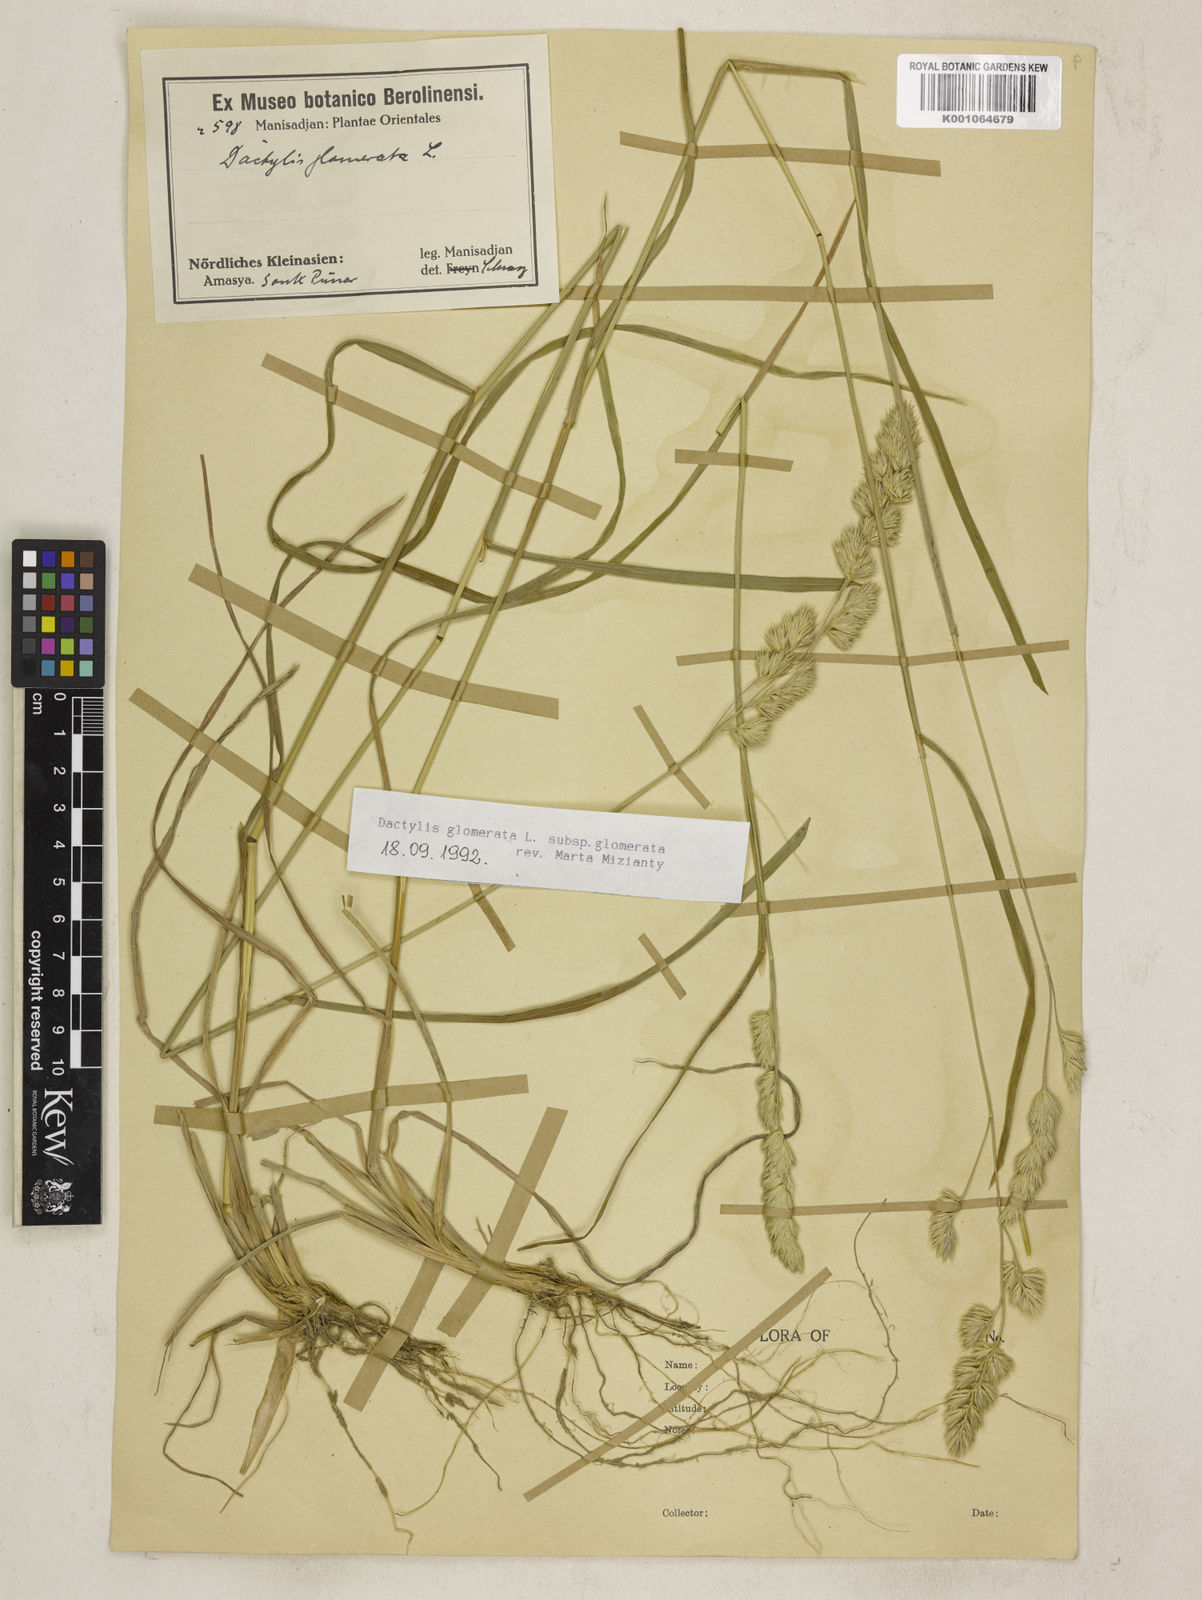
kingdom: Plantae
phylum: Tracheophyta
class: Liliopsida
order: Poales
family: Poaceae
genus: Dactylis
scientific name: Dactylis glomerata
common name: Orchardgrass
